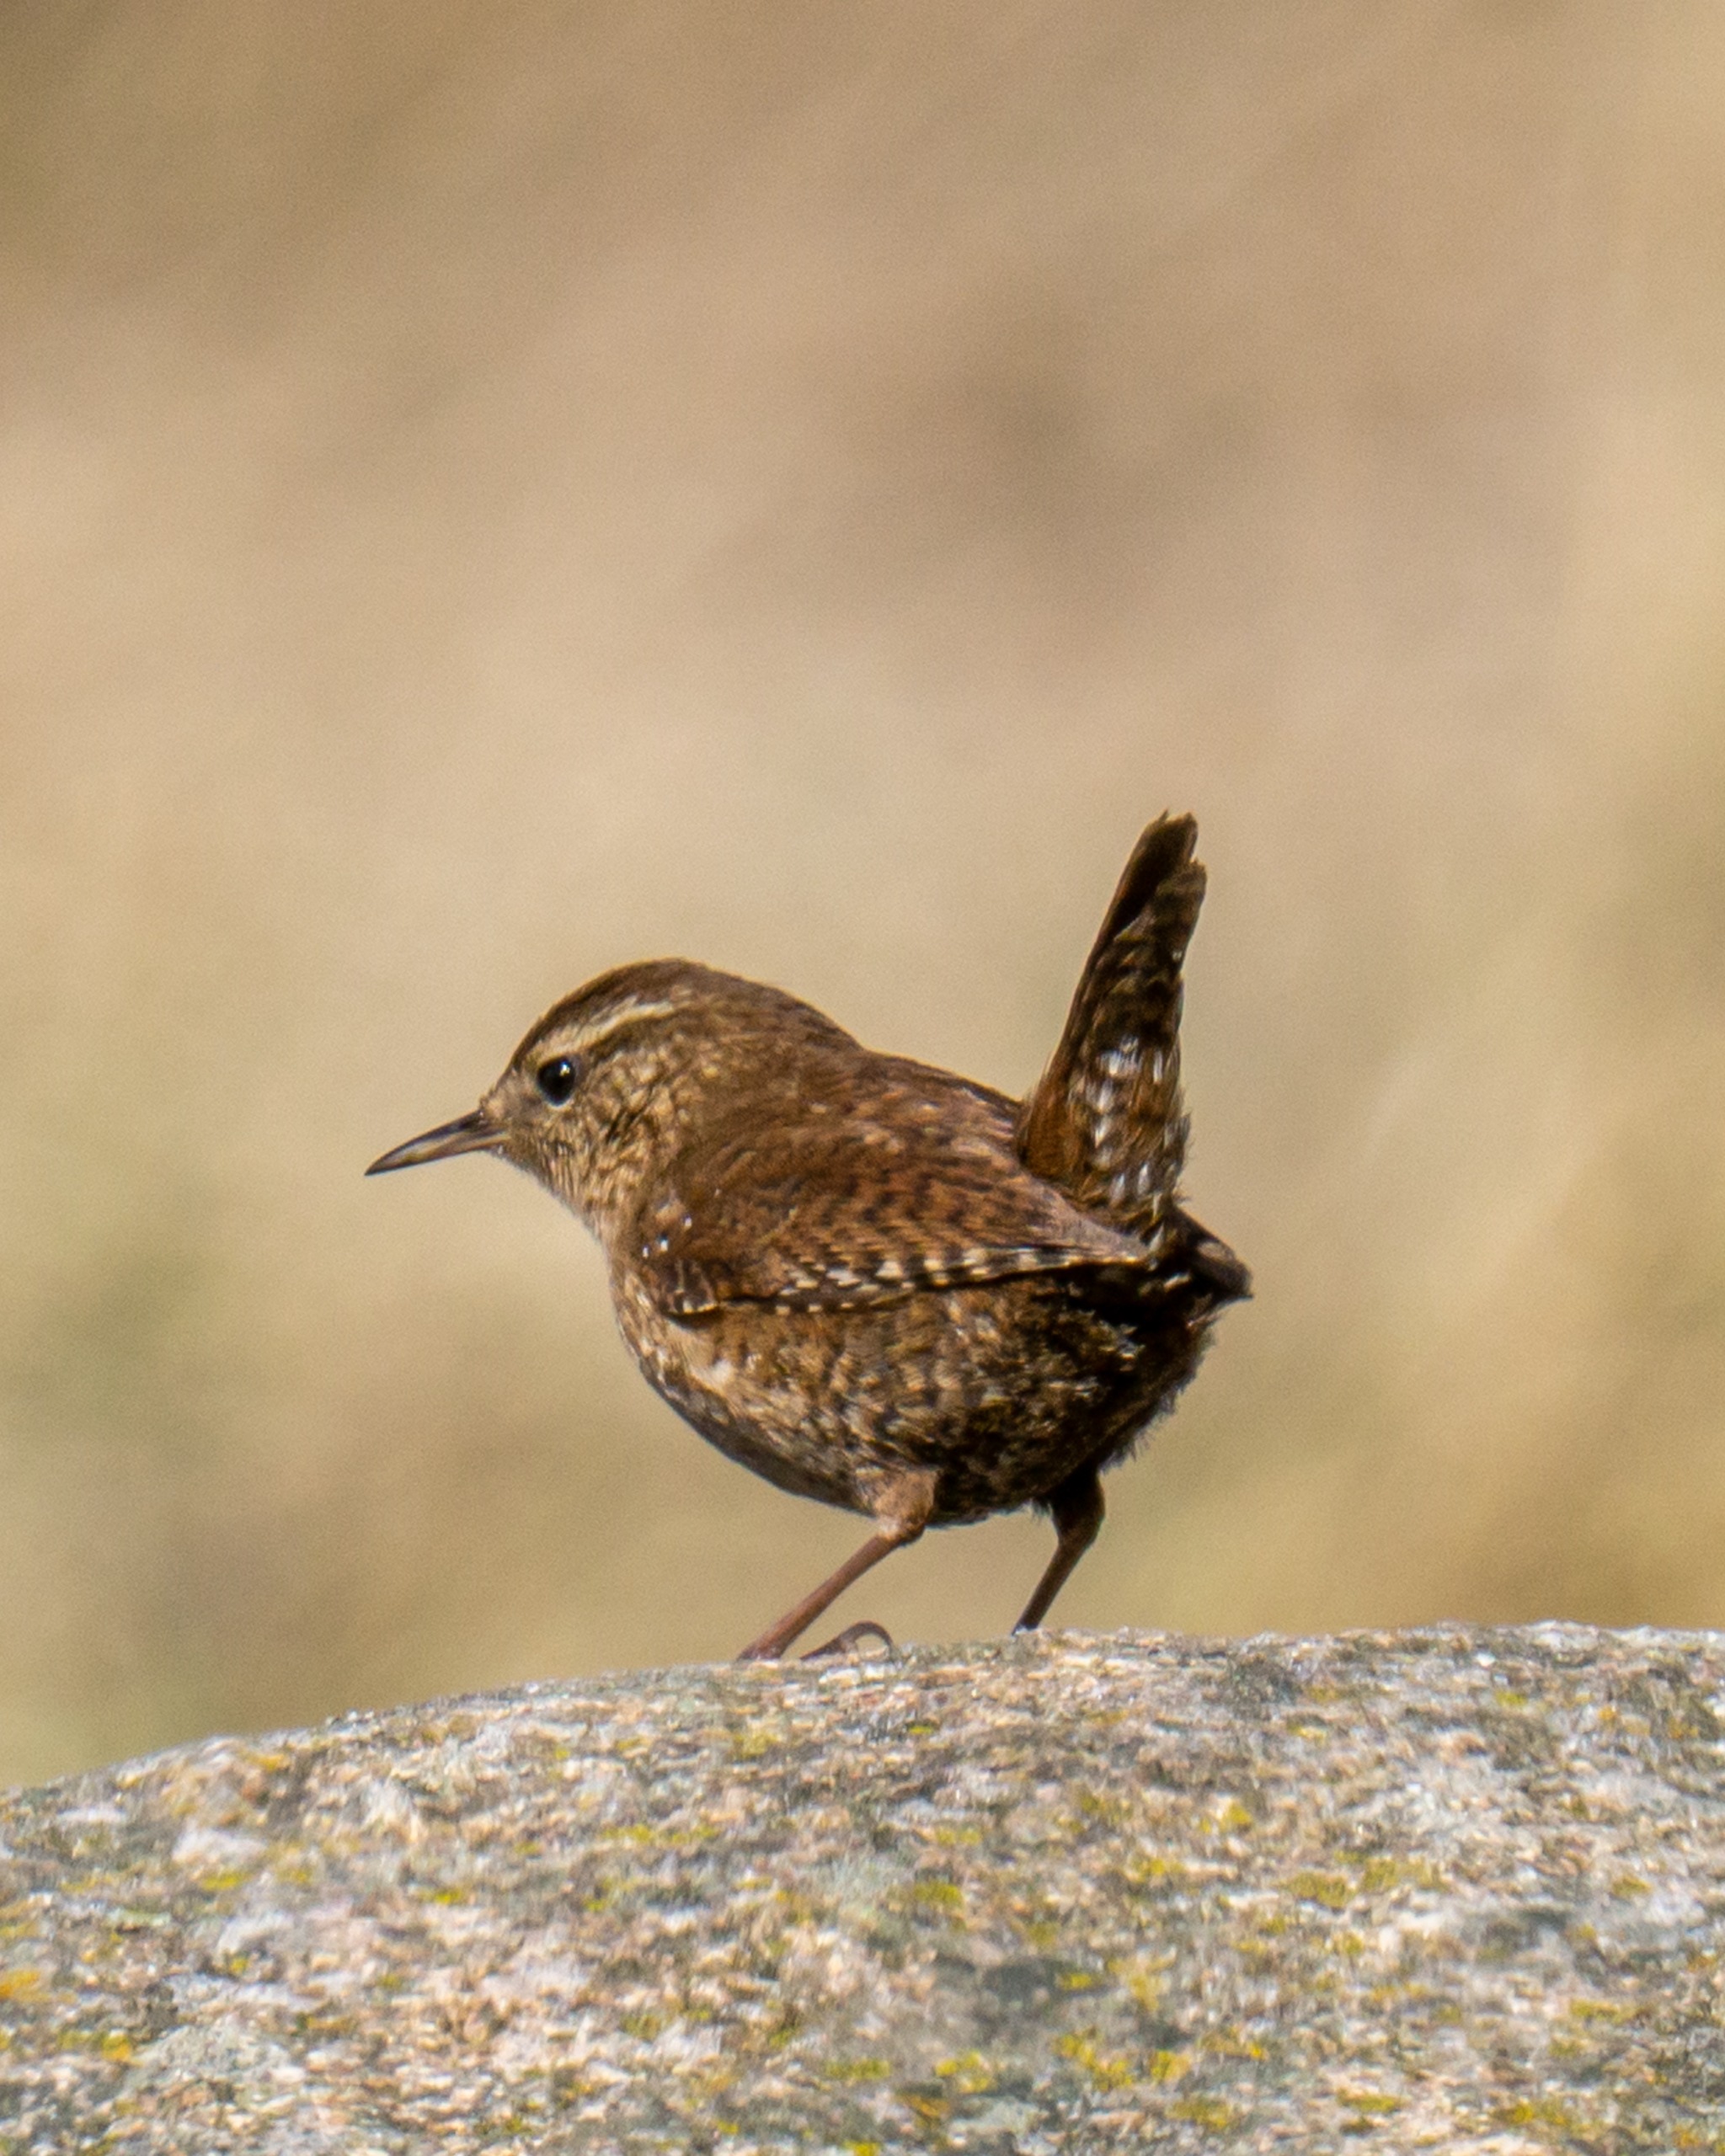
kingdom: Animalia
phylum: Chordata
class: Aves
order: Passeriformes
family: Troglodytidae
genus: Troglodytes
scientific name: Troglodytes troglodytes
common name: Gærdesmutte
